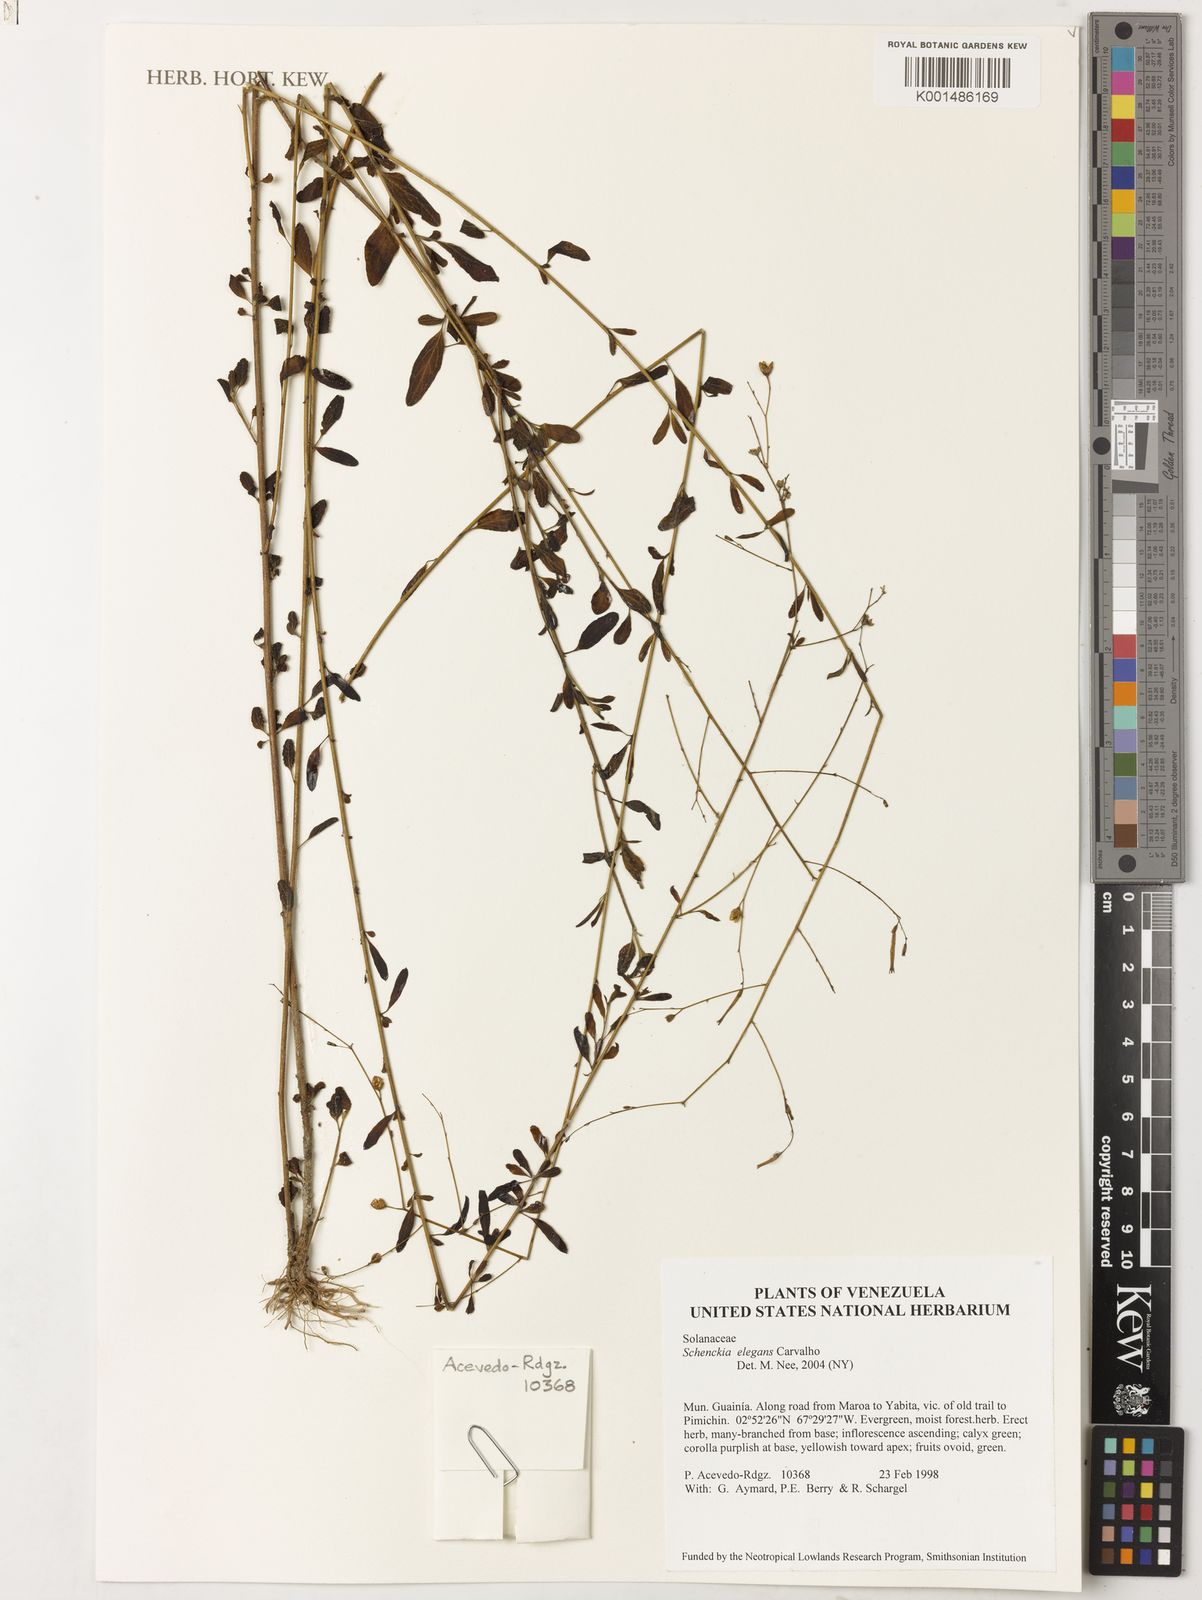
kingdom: Plantae
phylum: Tracheophyta
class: Magnoliopsida
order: Solanales
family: Solanaceae
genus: Schwenckia
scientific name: Schwenckia elegans
